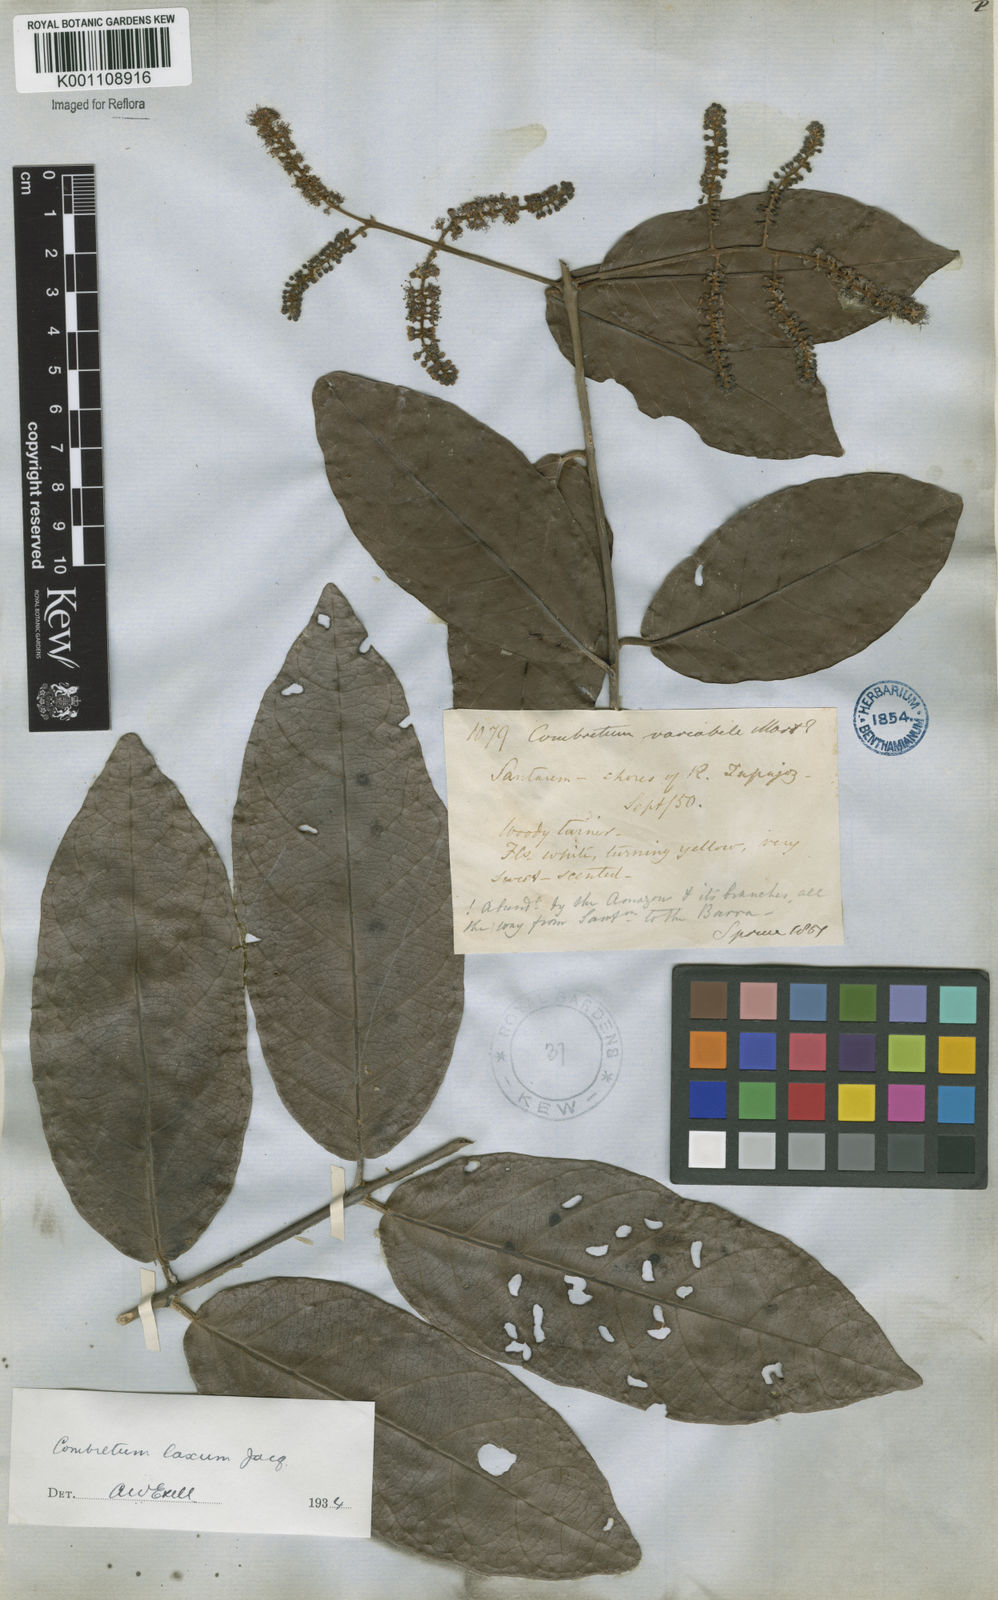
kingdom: Plantae
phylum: Tracheophyta
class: Magnoliopsida
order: Myrtales
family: Combretaceae
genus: Combretum
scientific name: Combretum laxum
